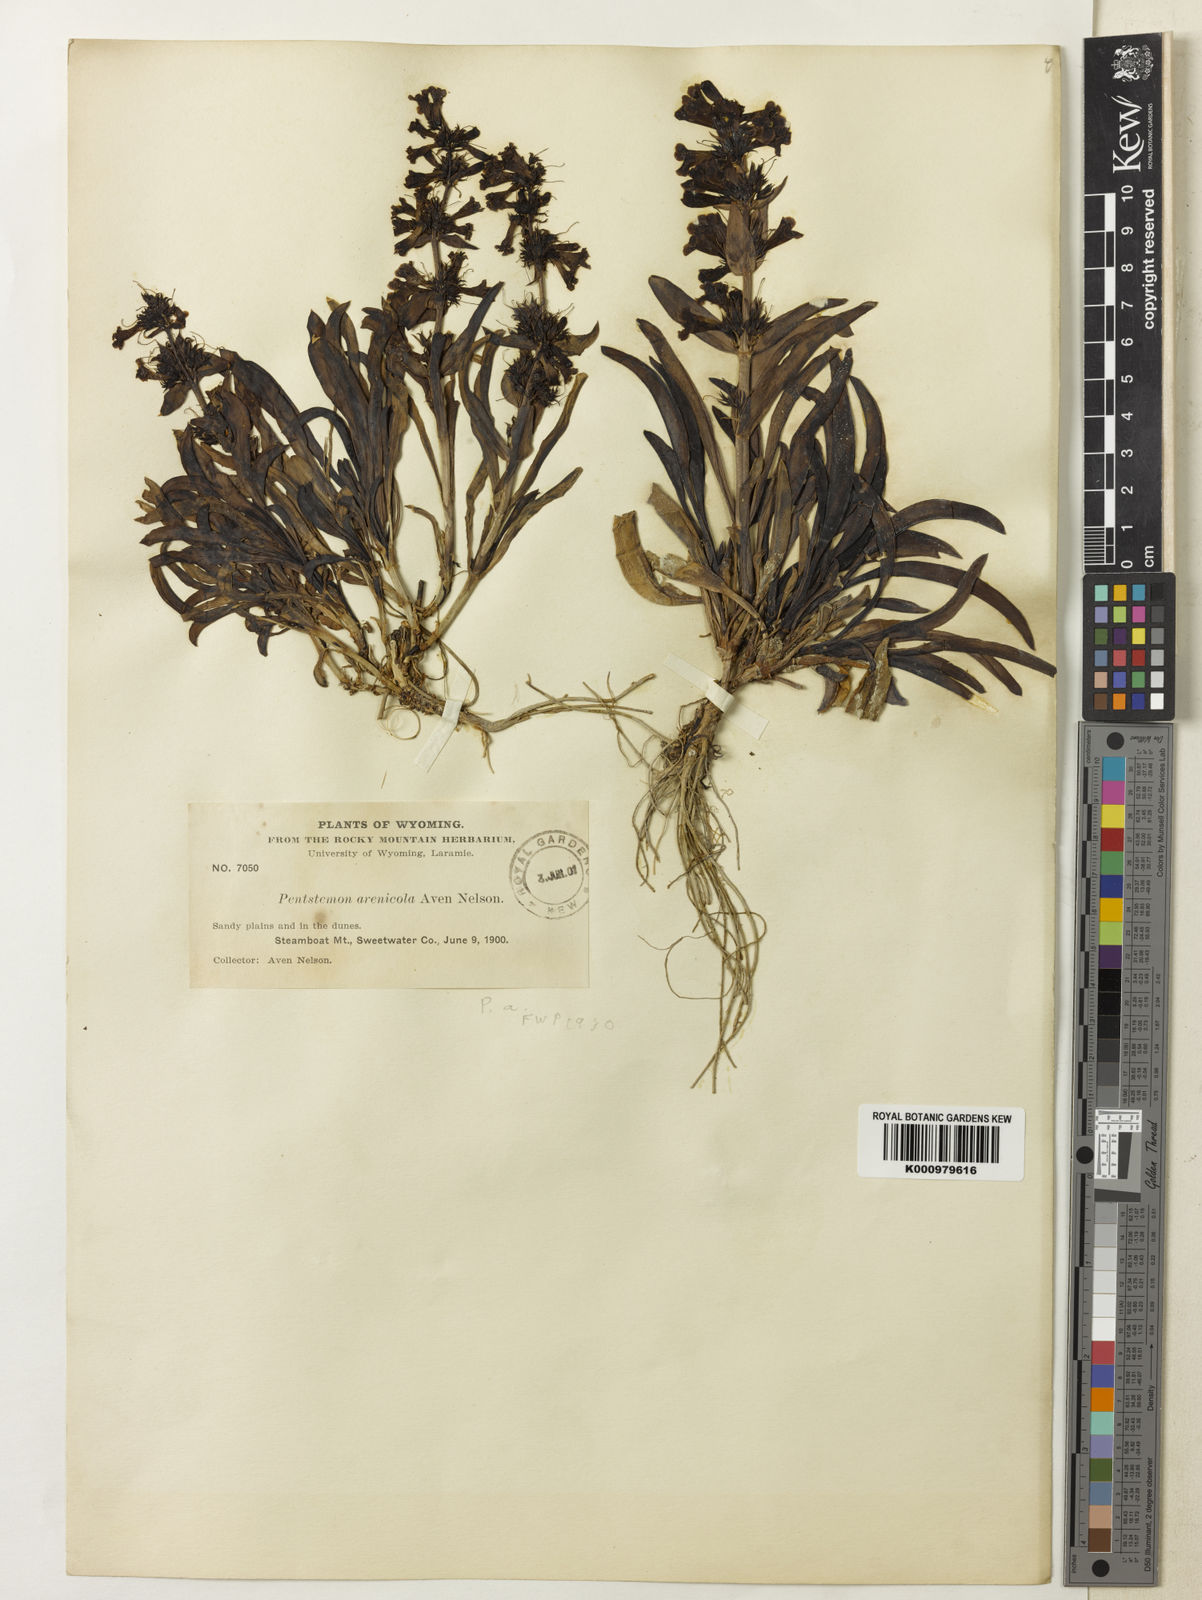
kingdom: Plantae
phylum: Tracheophyta
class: Magnoliopsida
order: Lamiales
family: Plantaginaceae
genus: Penstemon
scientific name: Penstemon arenicola
